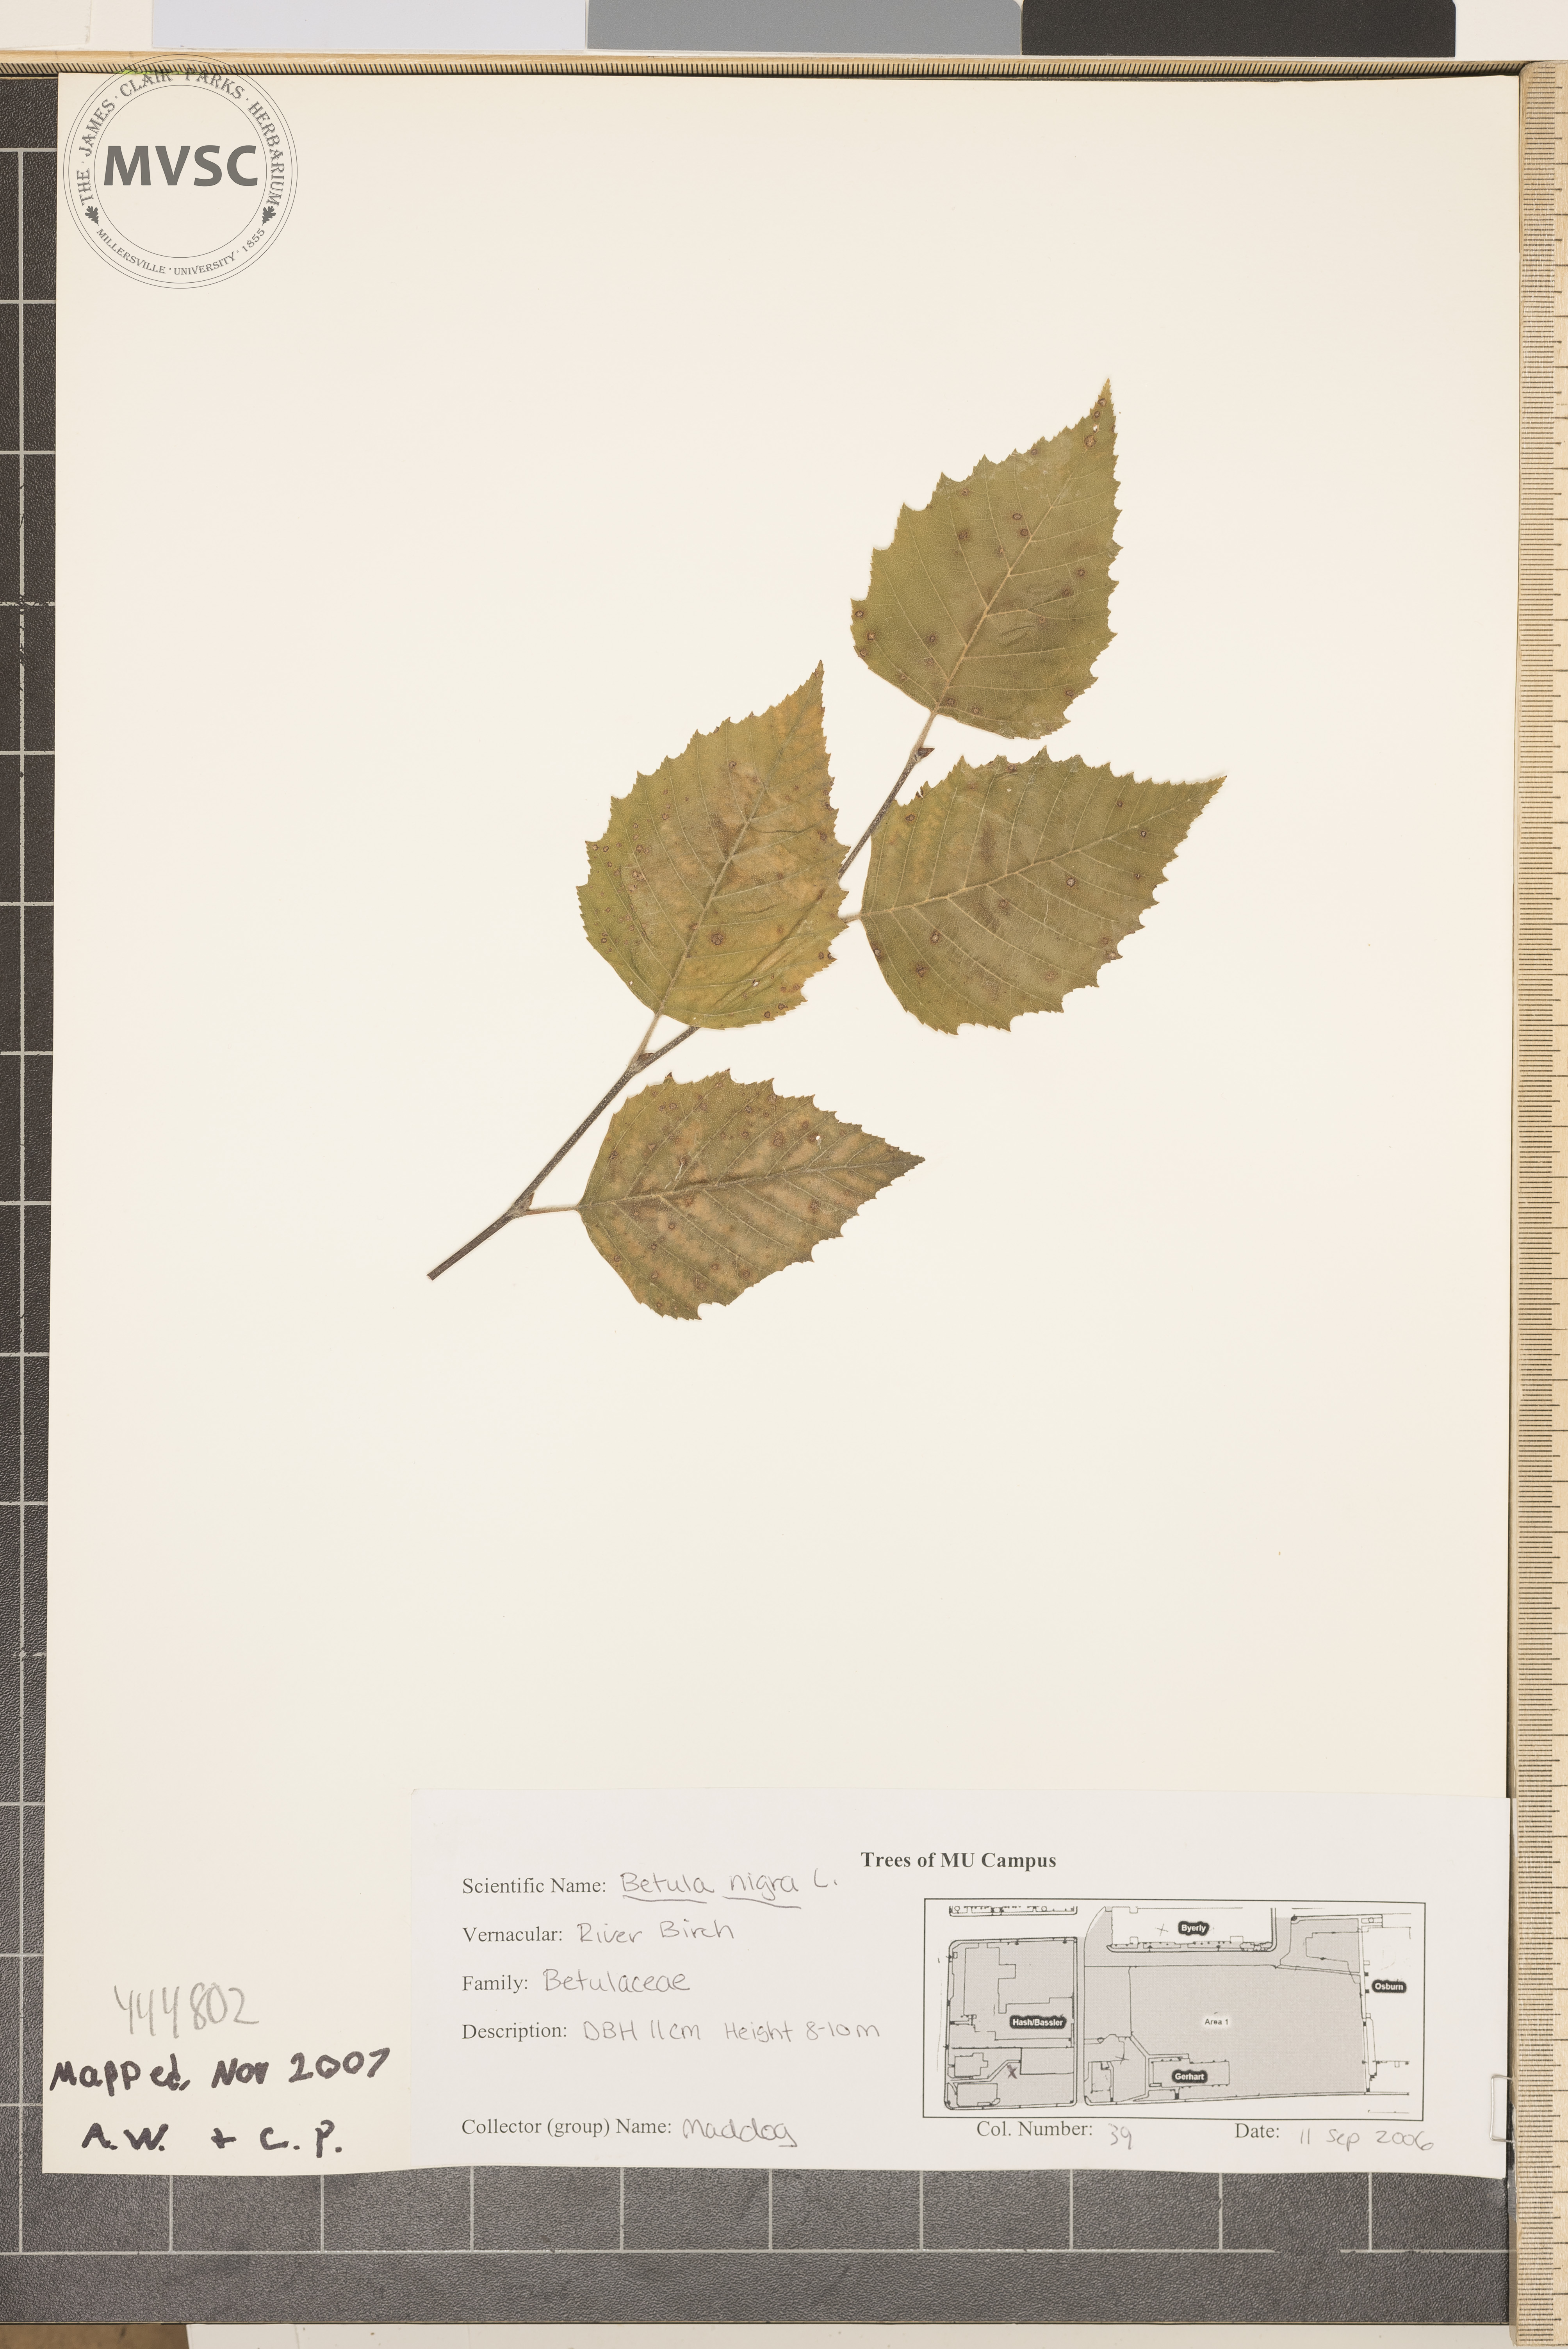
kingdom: Plantae
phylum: Tracheophyta
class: Magnoliopsida
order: Fagales
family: Betulaceae
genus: Betula
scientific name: Betula nigra
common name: River birch
